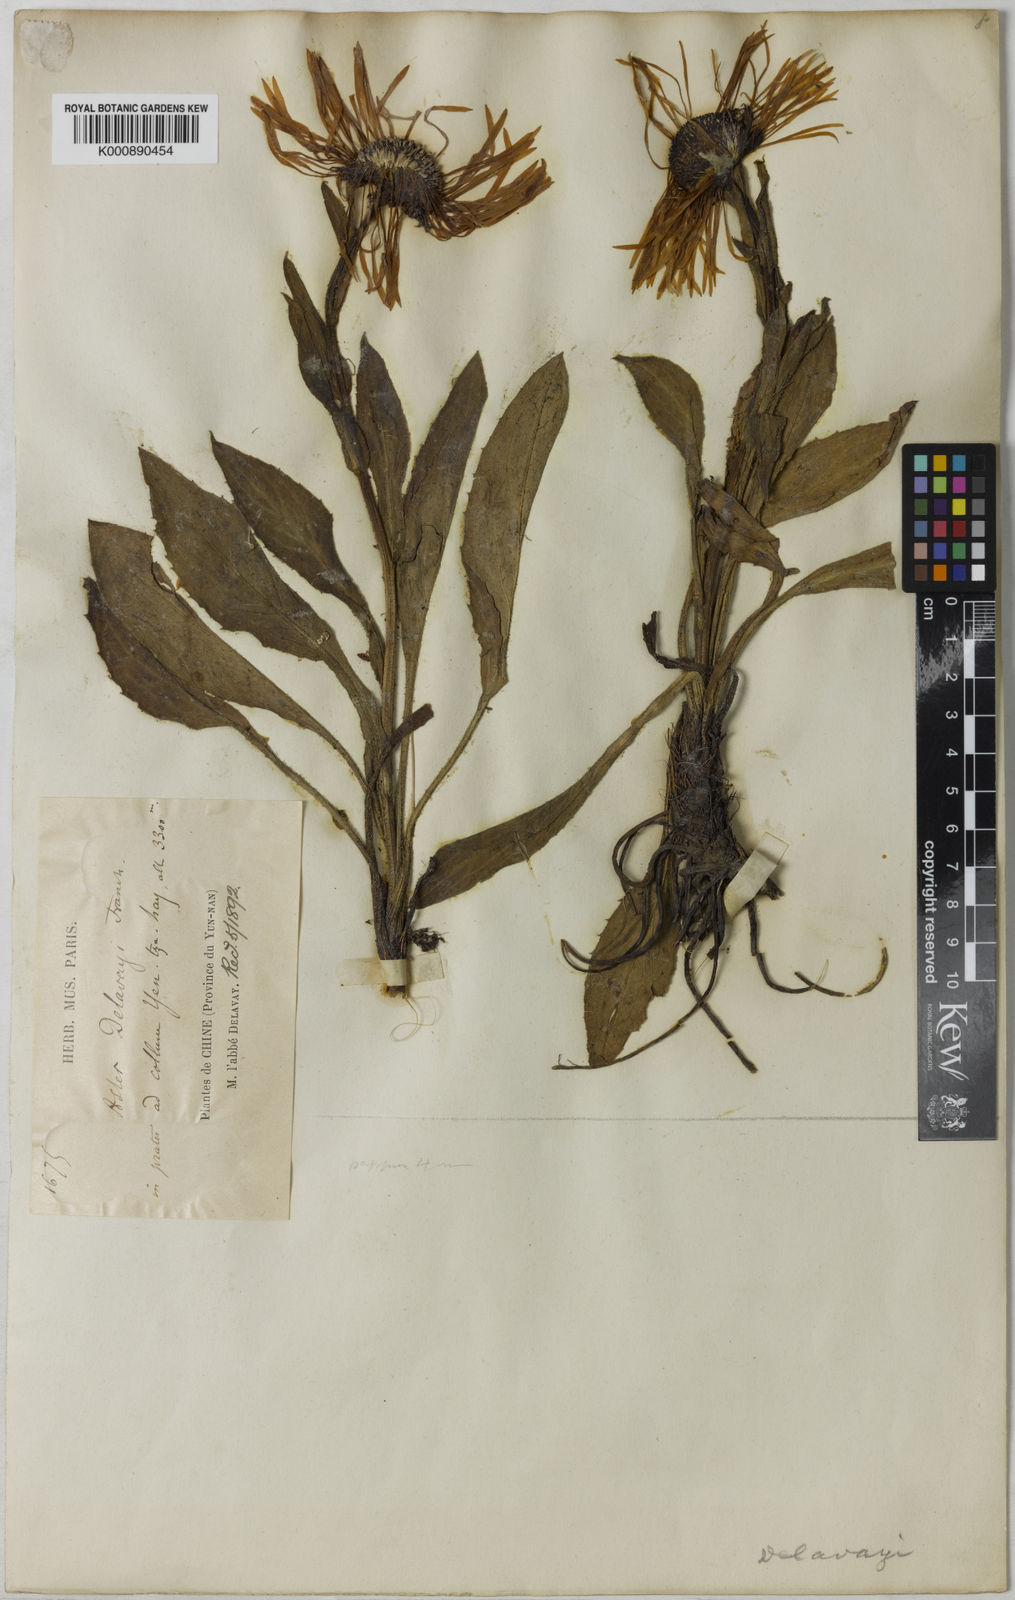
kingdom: Plantae
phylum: Tracheophyta
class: Magnoliopsida
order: Asterales
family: Asteraceae
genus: Tibetiodes
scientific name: Tibetiodes diplostephioides
